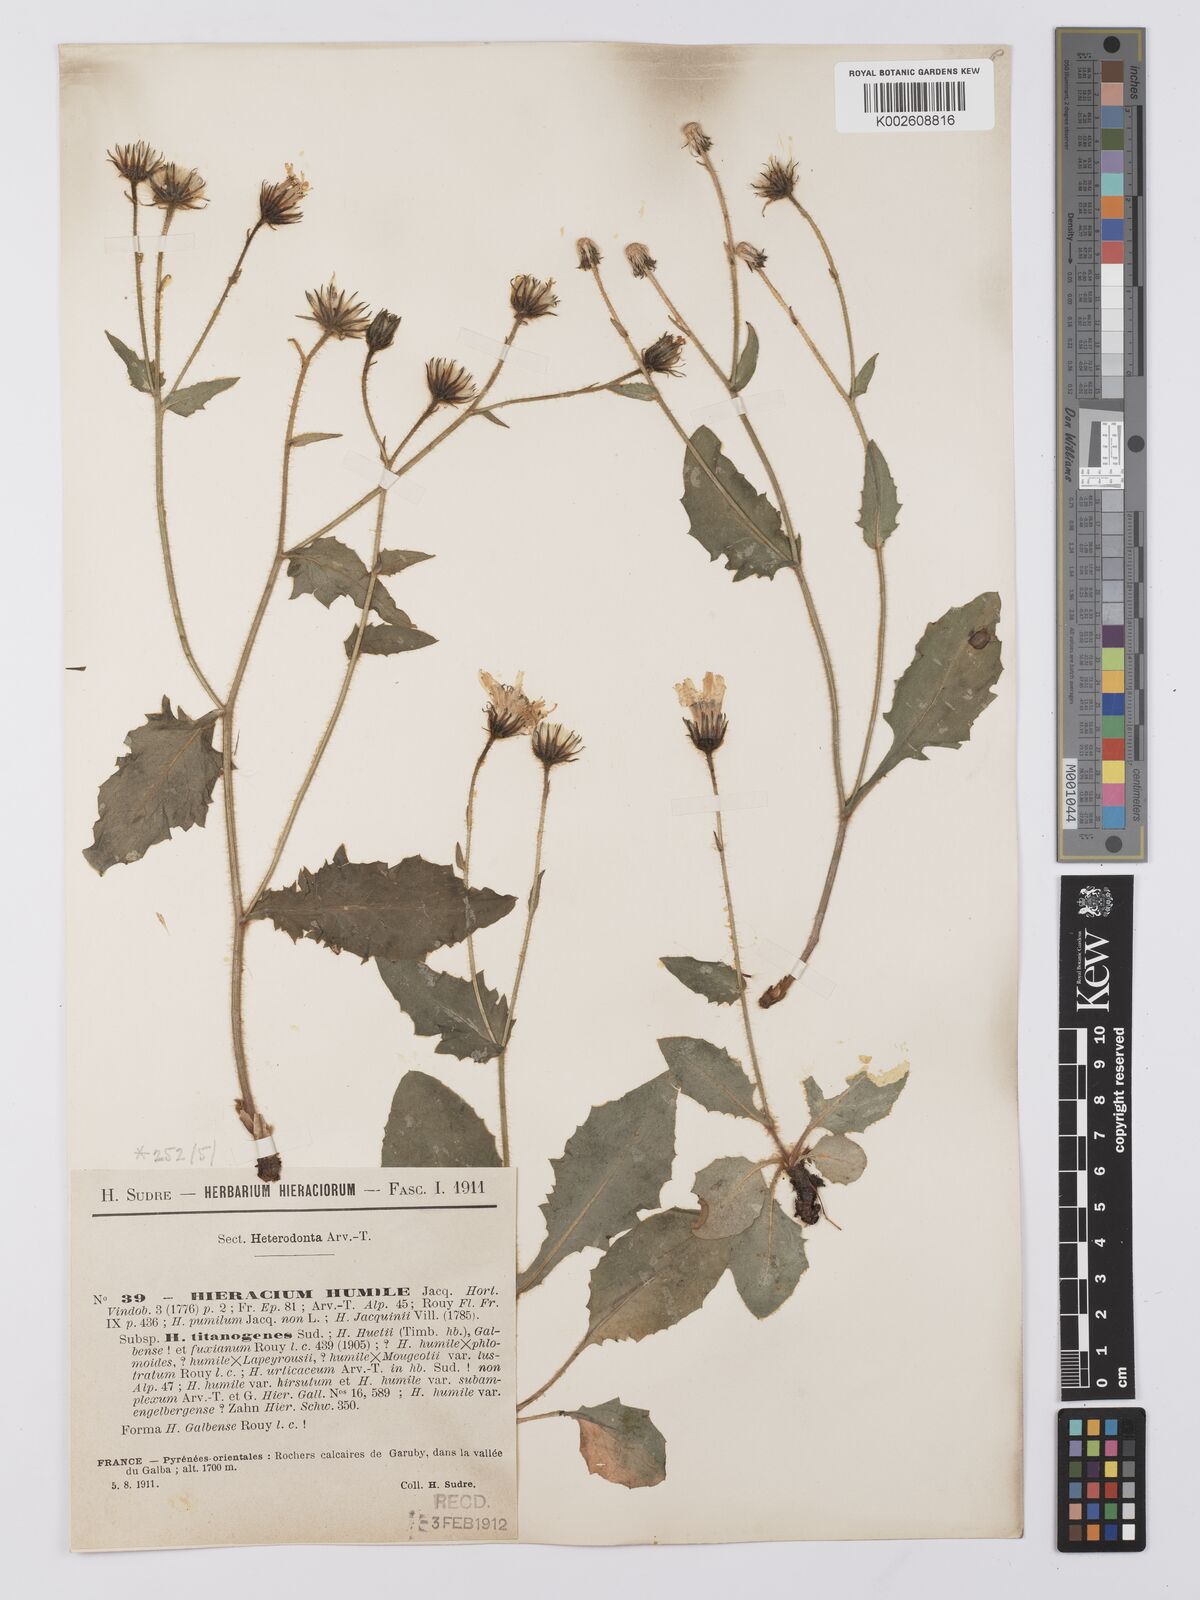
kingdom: Plantae
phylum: Tracheophyta
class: Magnoliopsida
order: Asterales
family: Asteraceae
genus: Hieracium
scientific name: Hieracium humile
